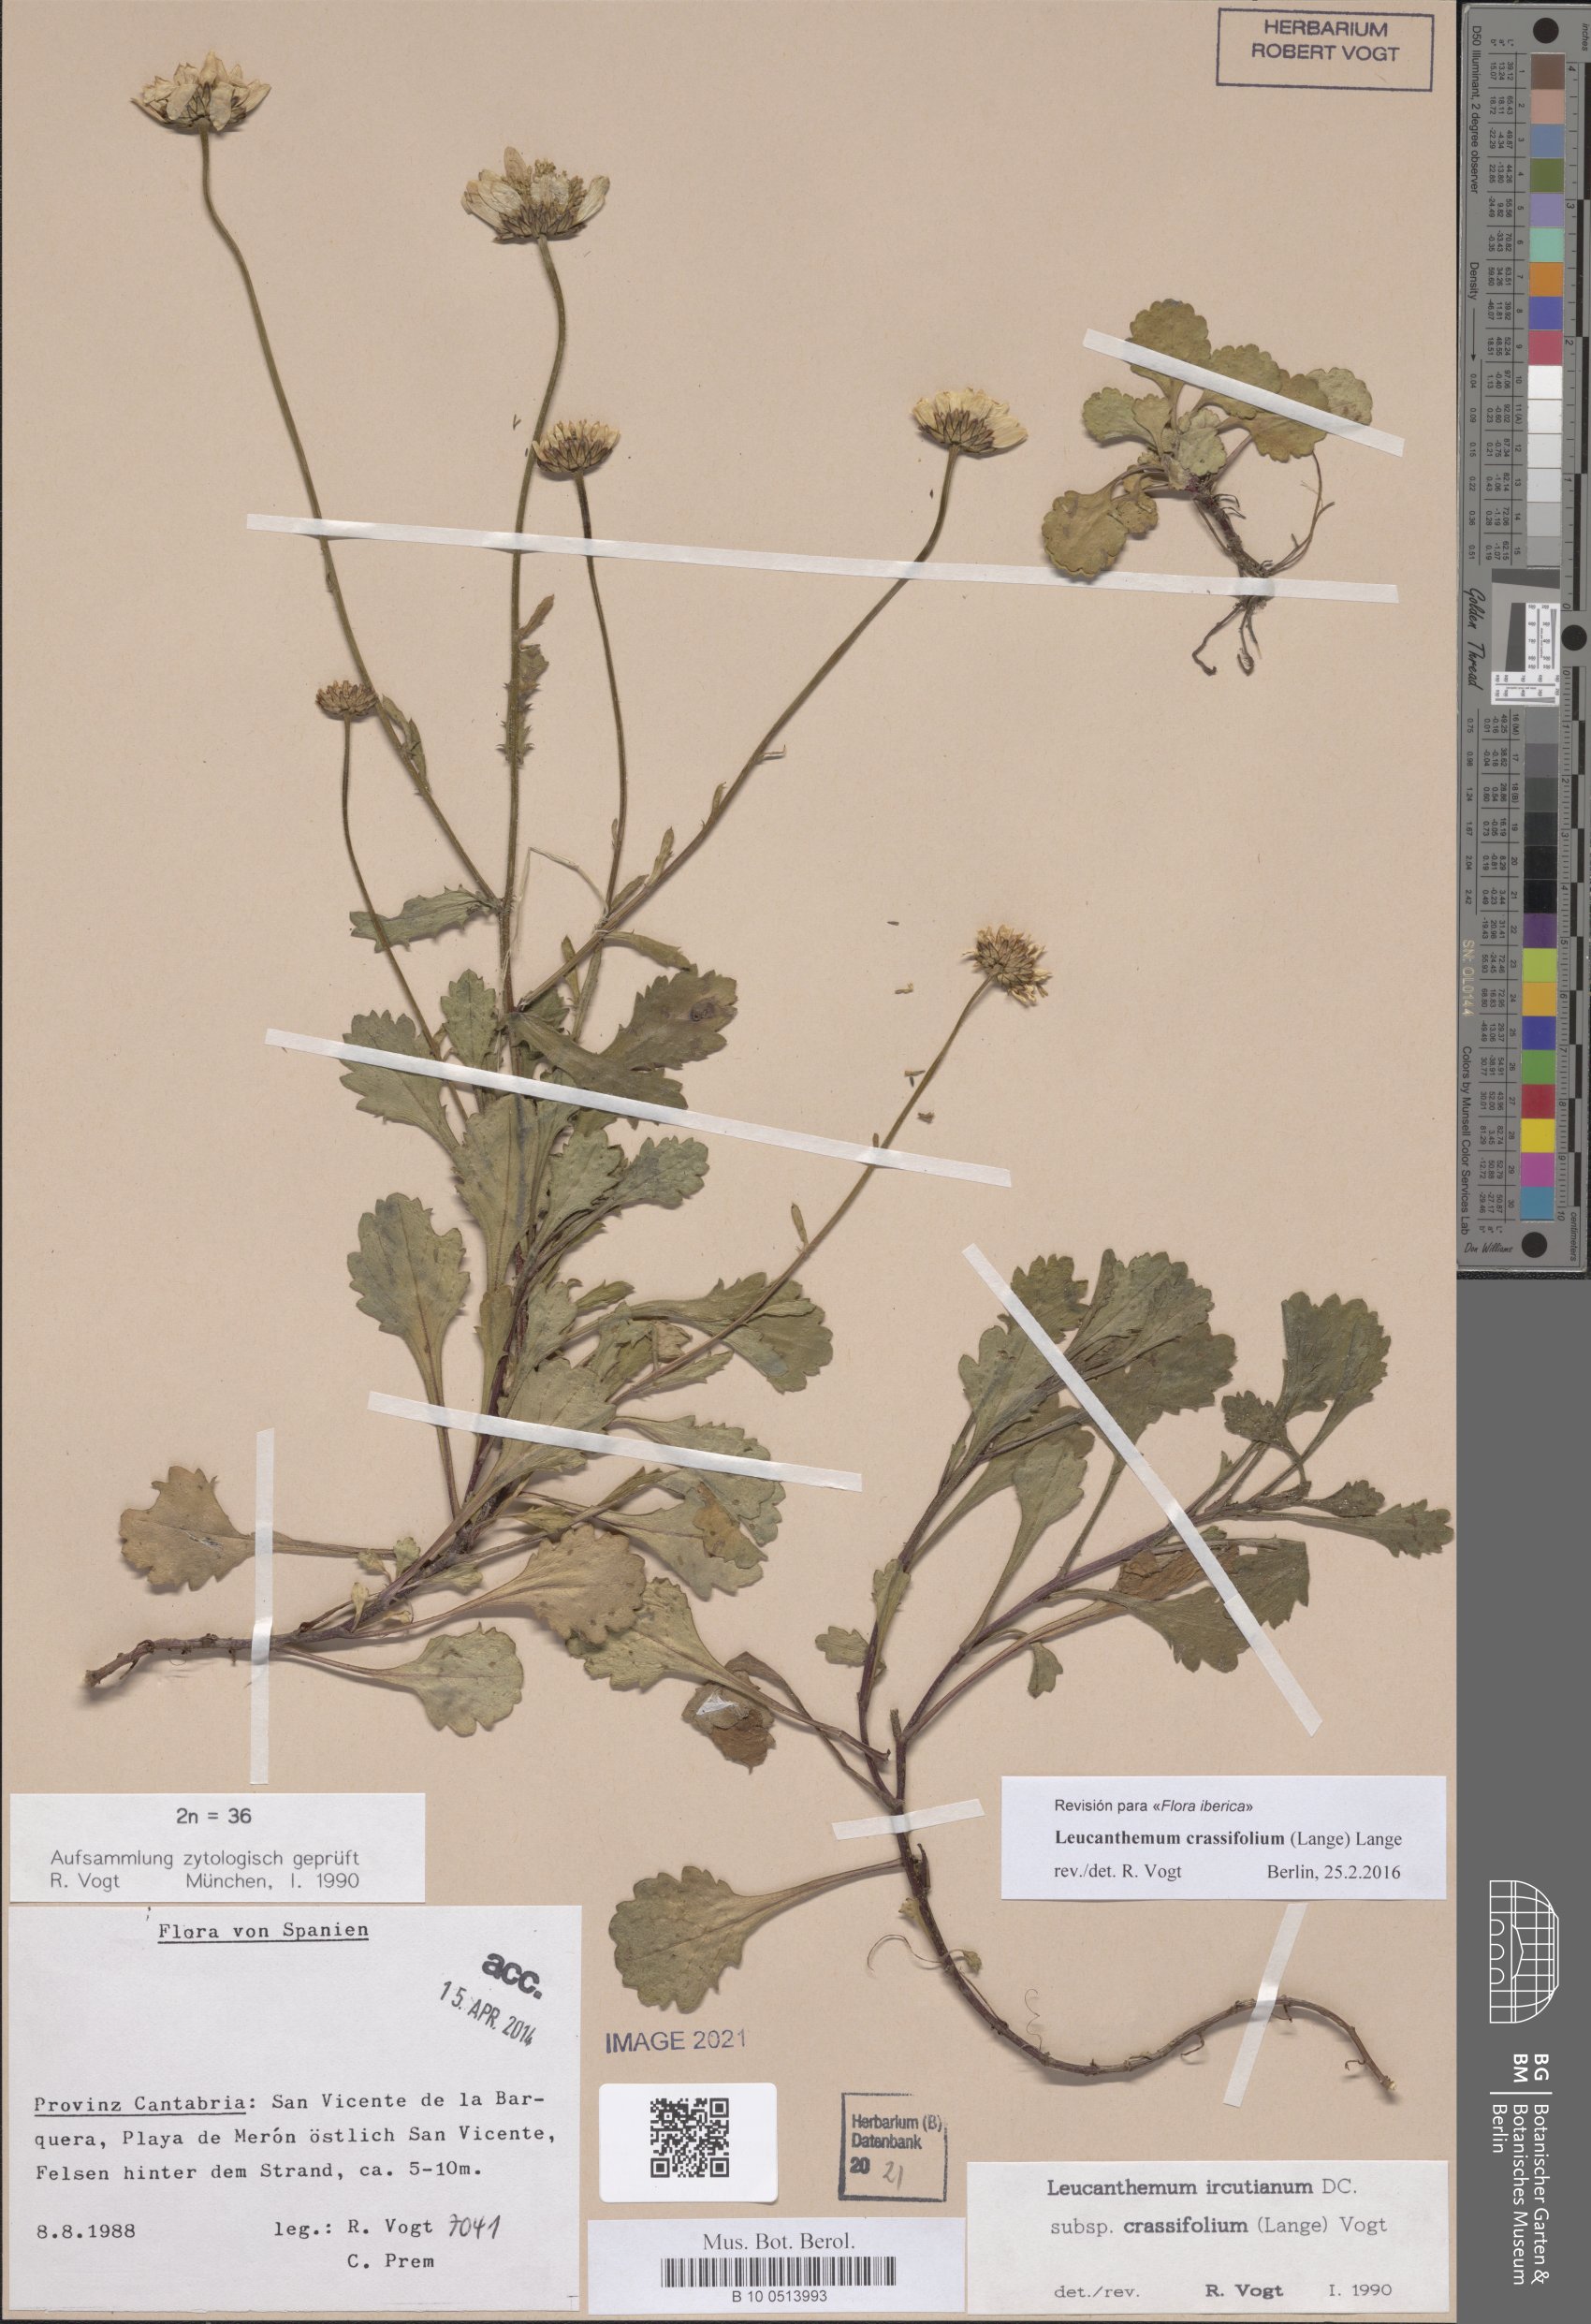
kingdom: Plantae
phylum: Tracheophyta
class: Magnoliopsida
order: Asterales
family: Asteraceae
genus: Leucanthemum
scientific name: Leucanthemum crassifolium
